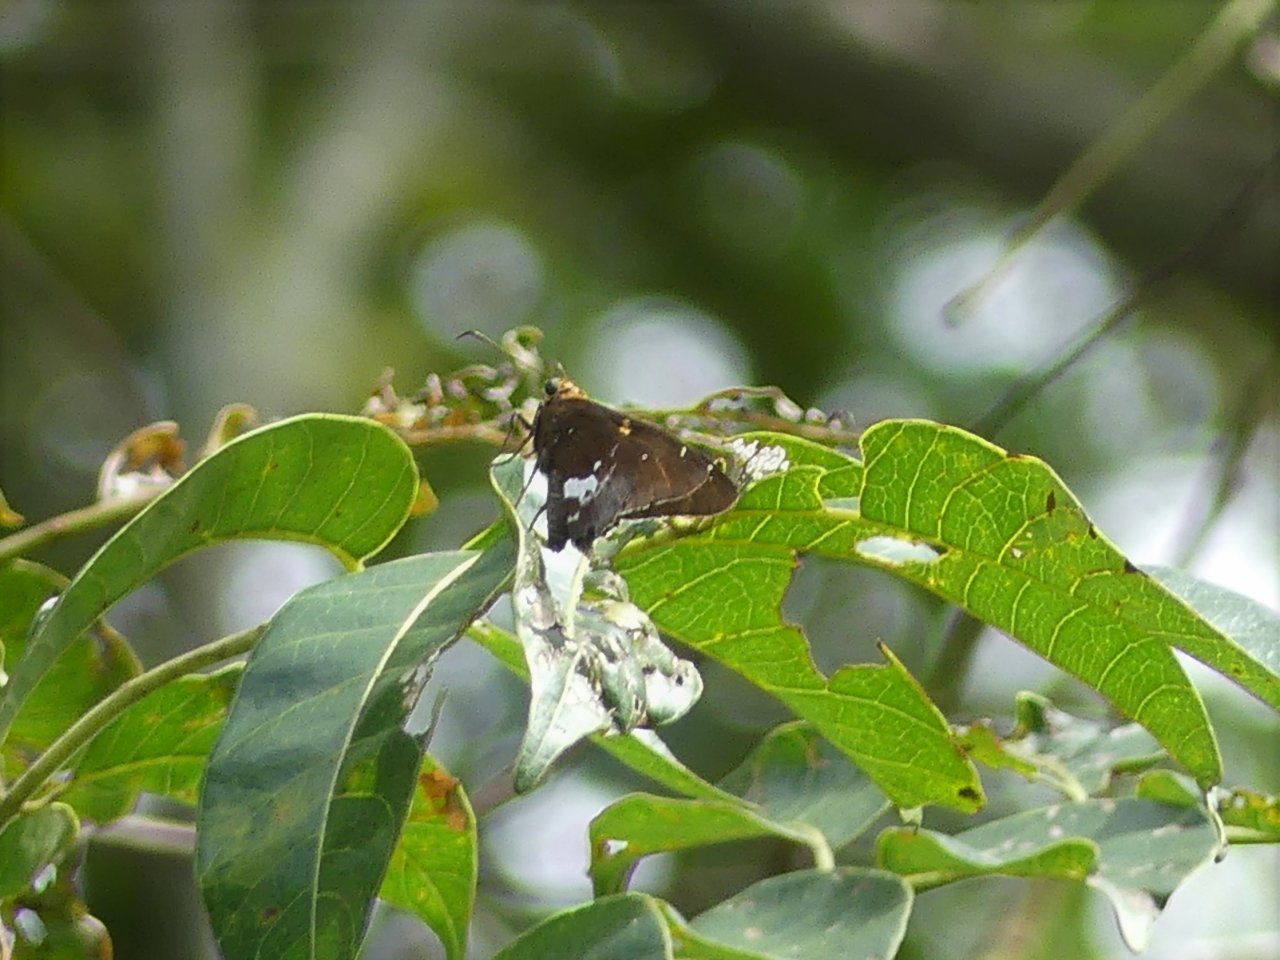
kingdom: Animalia
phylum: Arthropoda
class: Insecta
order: Lepidoptera
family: Hesperiidae
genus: Epargyreus
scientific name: Epargyreus exadeus
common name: Broken Silverdrop
